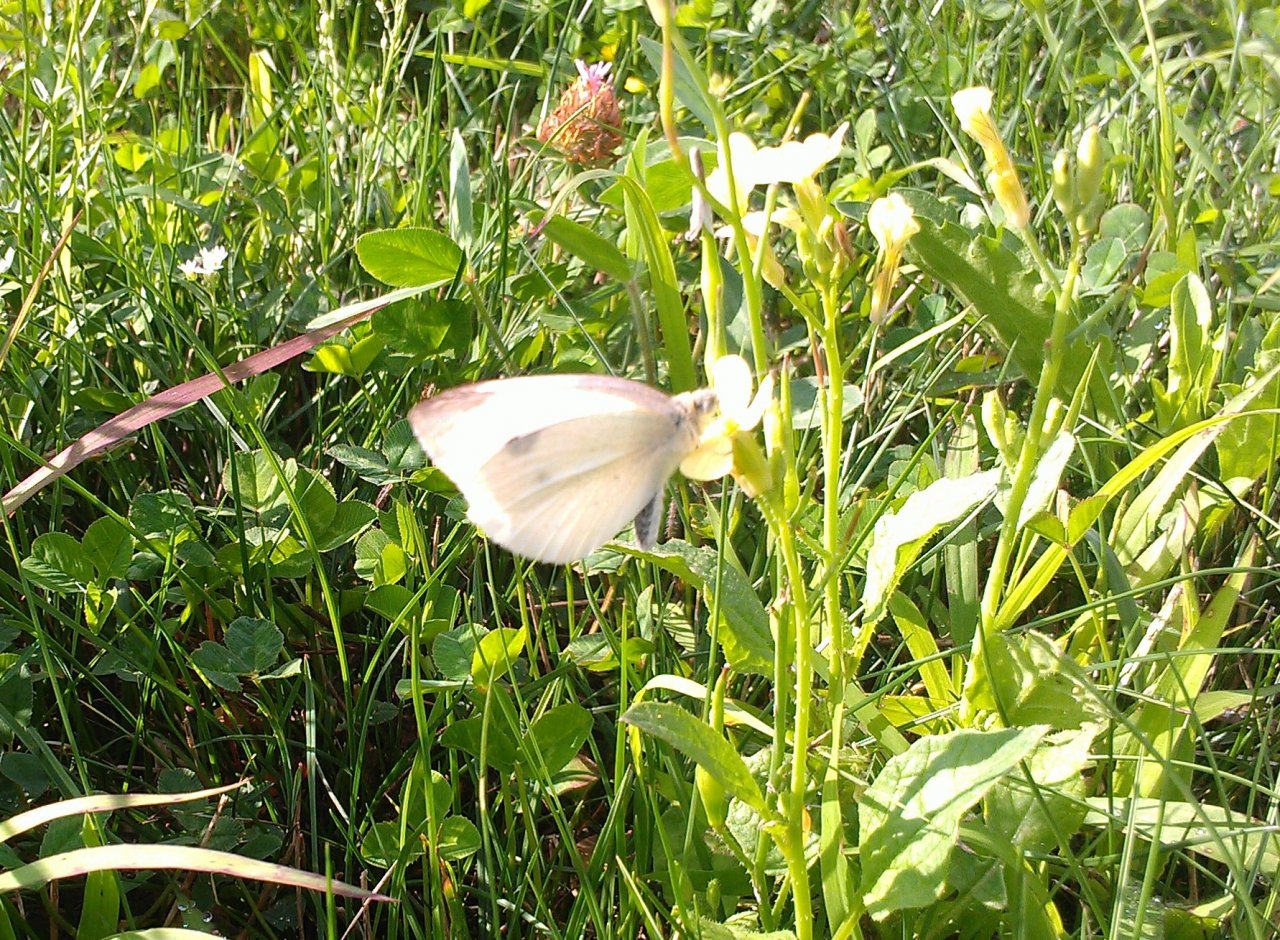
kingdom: Animalia
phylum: Arthropoda
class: Insecta
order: Lepidoptera
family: Pieridae
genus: Pieris
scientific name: Pieris rapae
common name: Cabbage White
